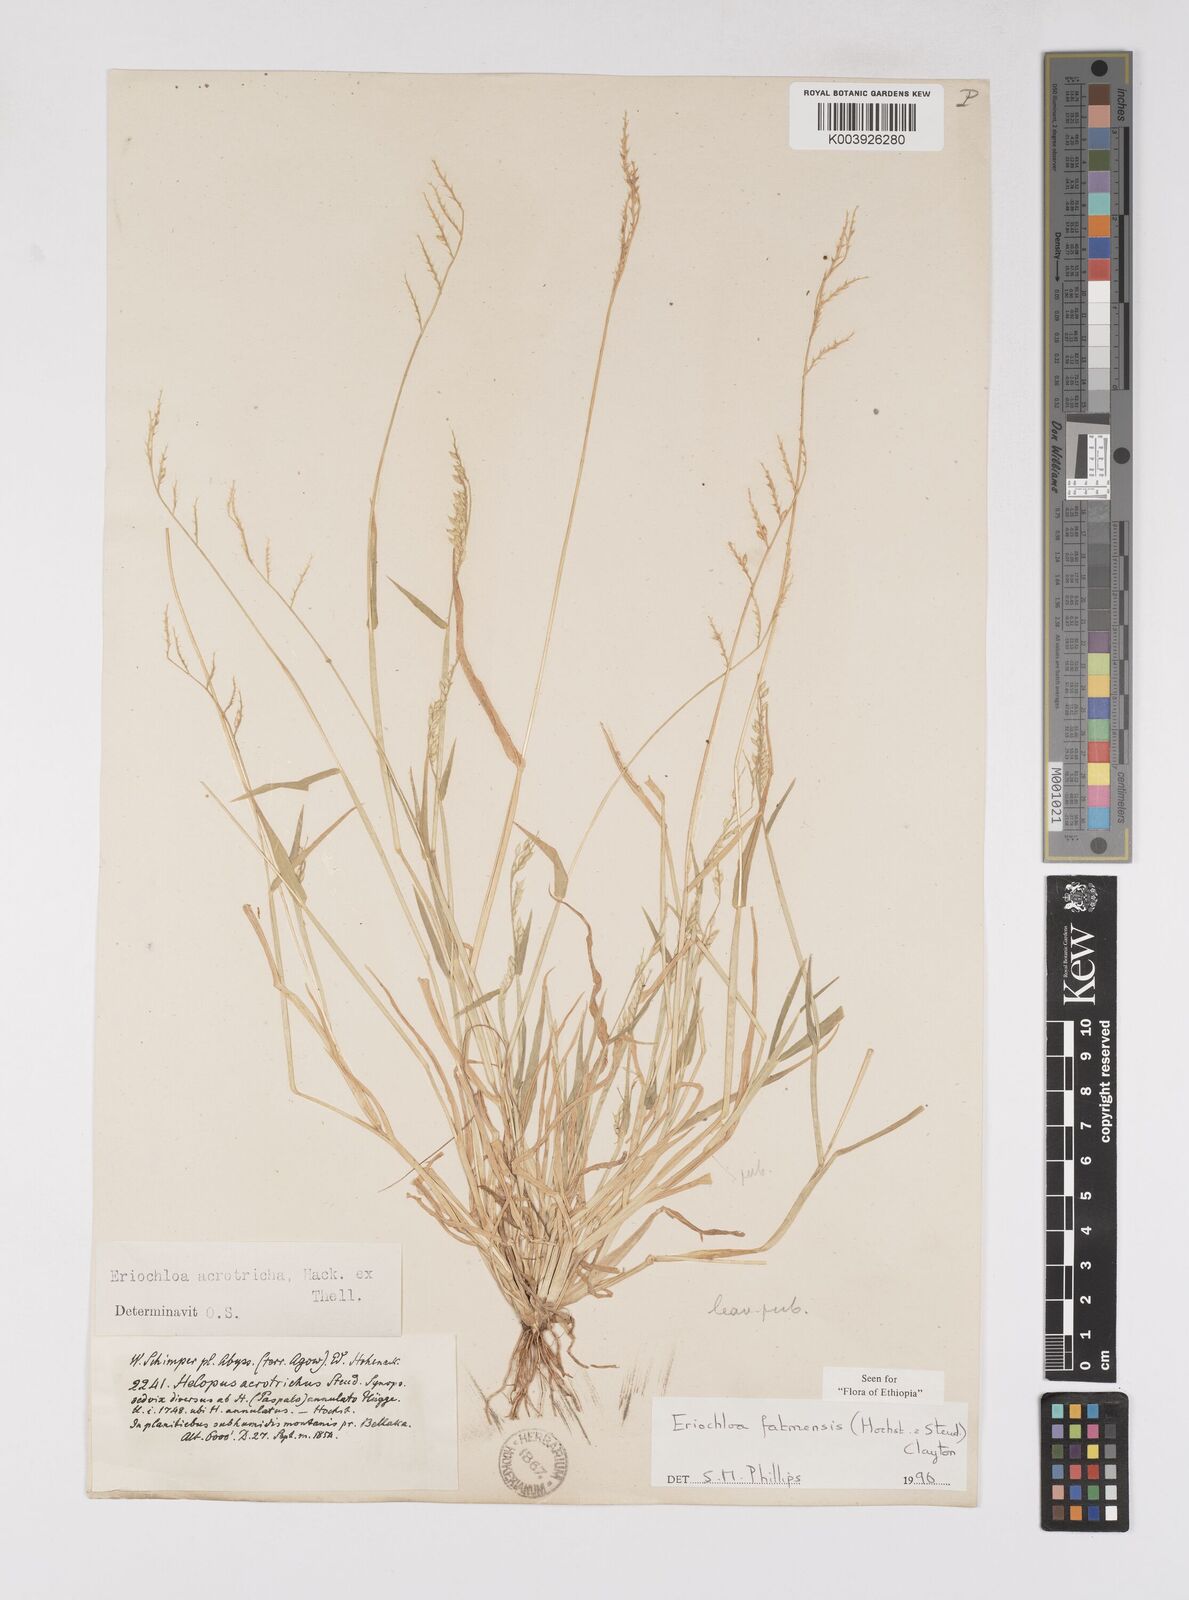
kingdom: Plantae
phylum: Tracheophyta
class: Liliopsida
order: Poales
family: Poaceae
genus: Eriochloa
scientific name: Eriochloa barbatus
